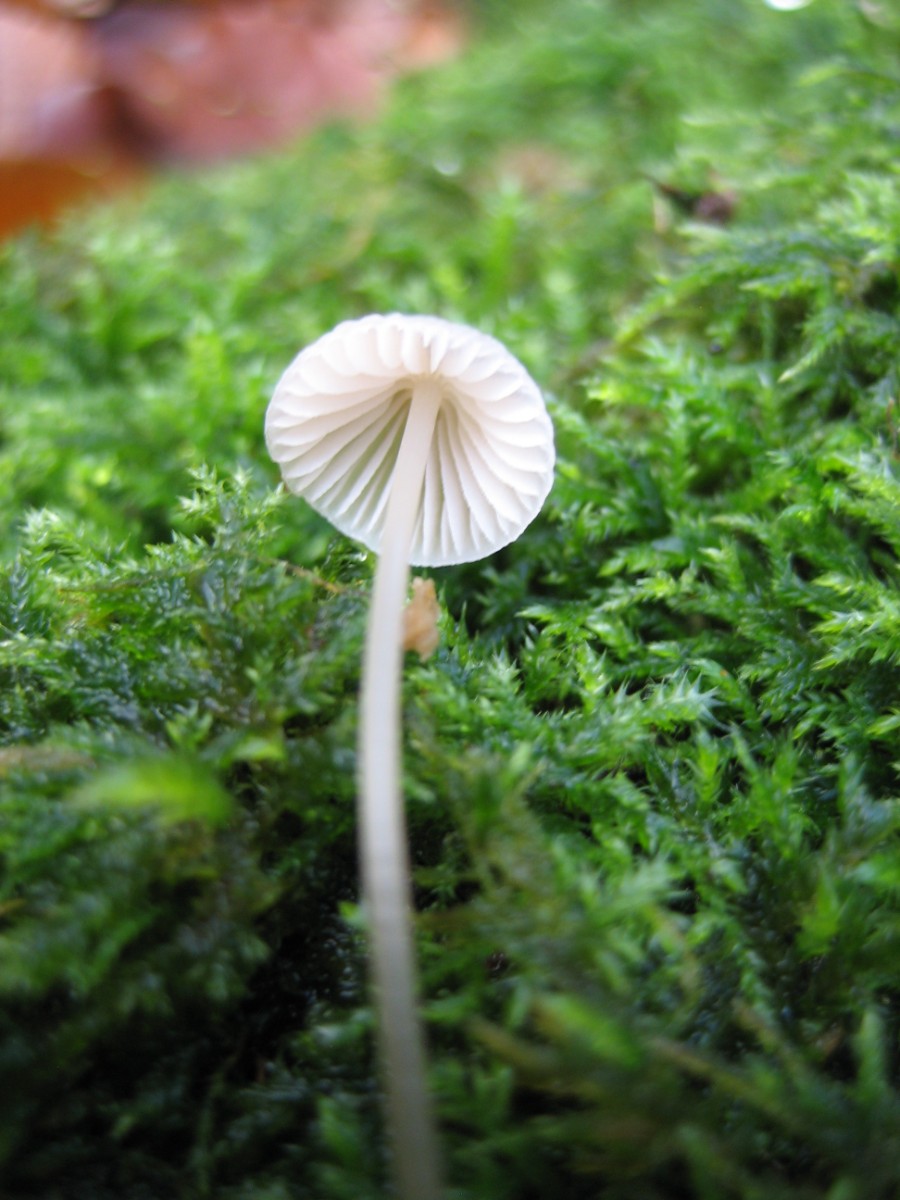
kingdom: Fungi
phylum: Basidiomycota
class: Agaricomycetes
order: Agaricales
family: Mycenaceae
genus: Mycena
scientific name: Mycena
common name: huesvamp
